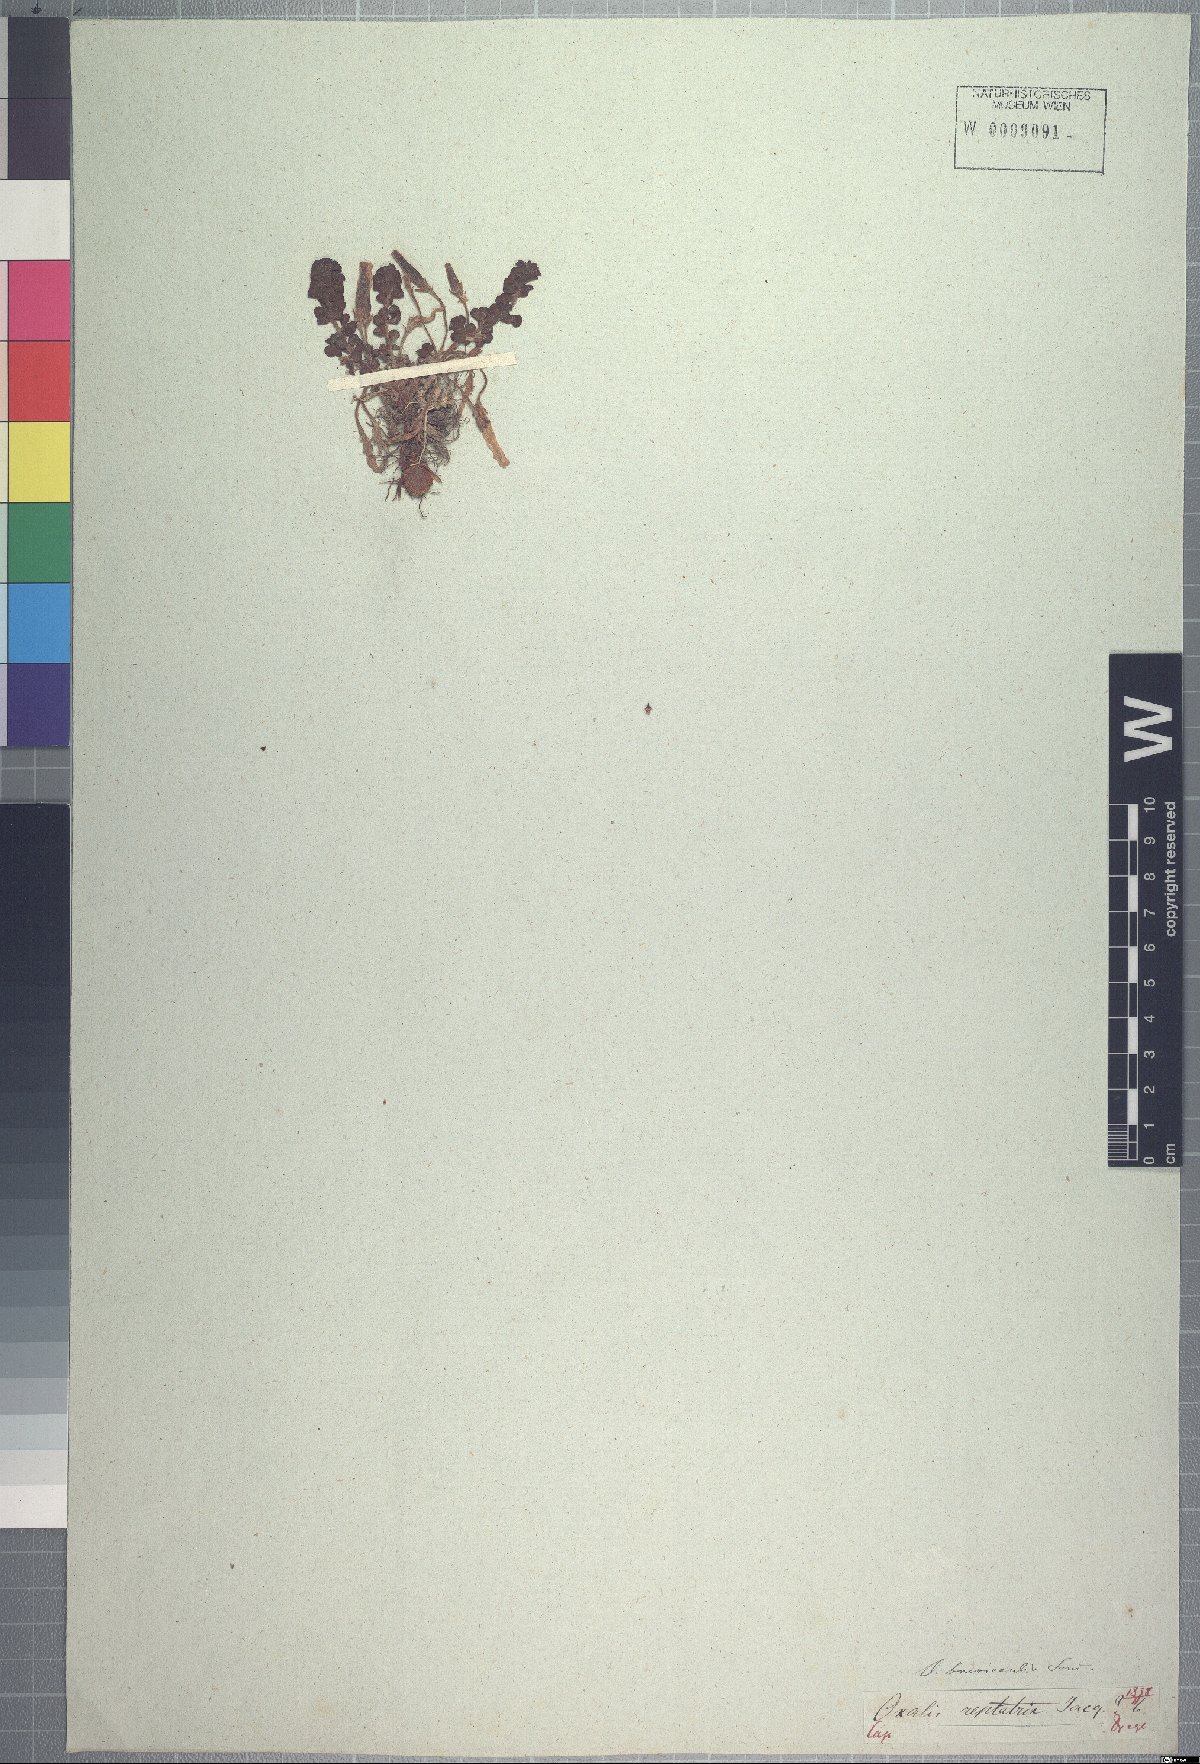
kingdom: Plantae
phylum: Tracheophyta
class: Magnoliopsida
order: Oxalidales
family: Oxalidaceae
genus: Oxalis
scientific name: Oxalis hirta
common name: Tropical woodsorrel
